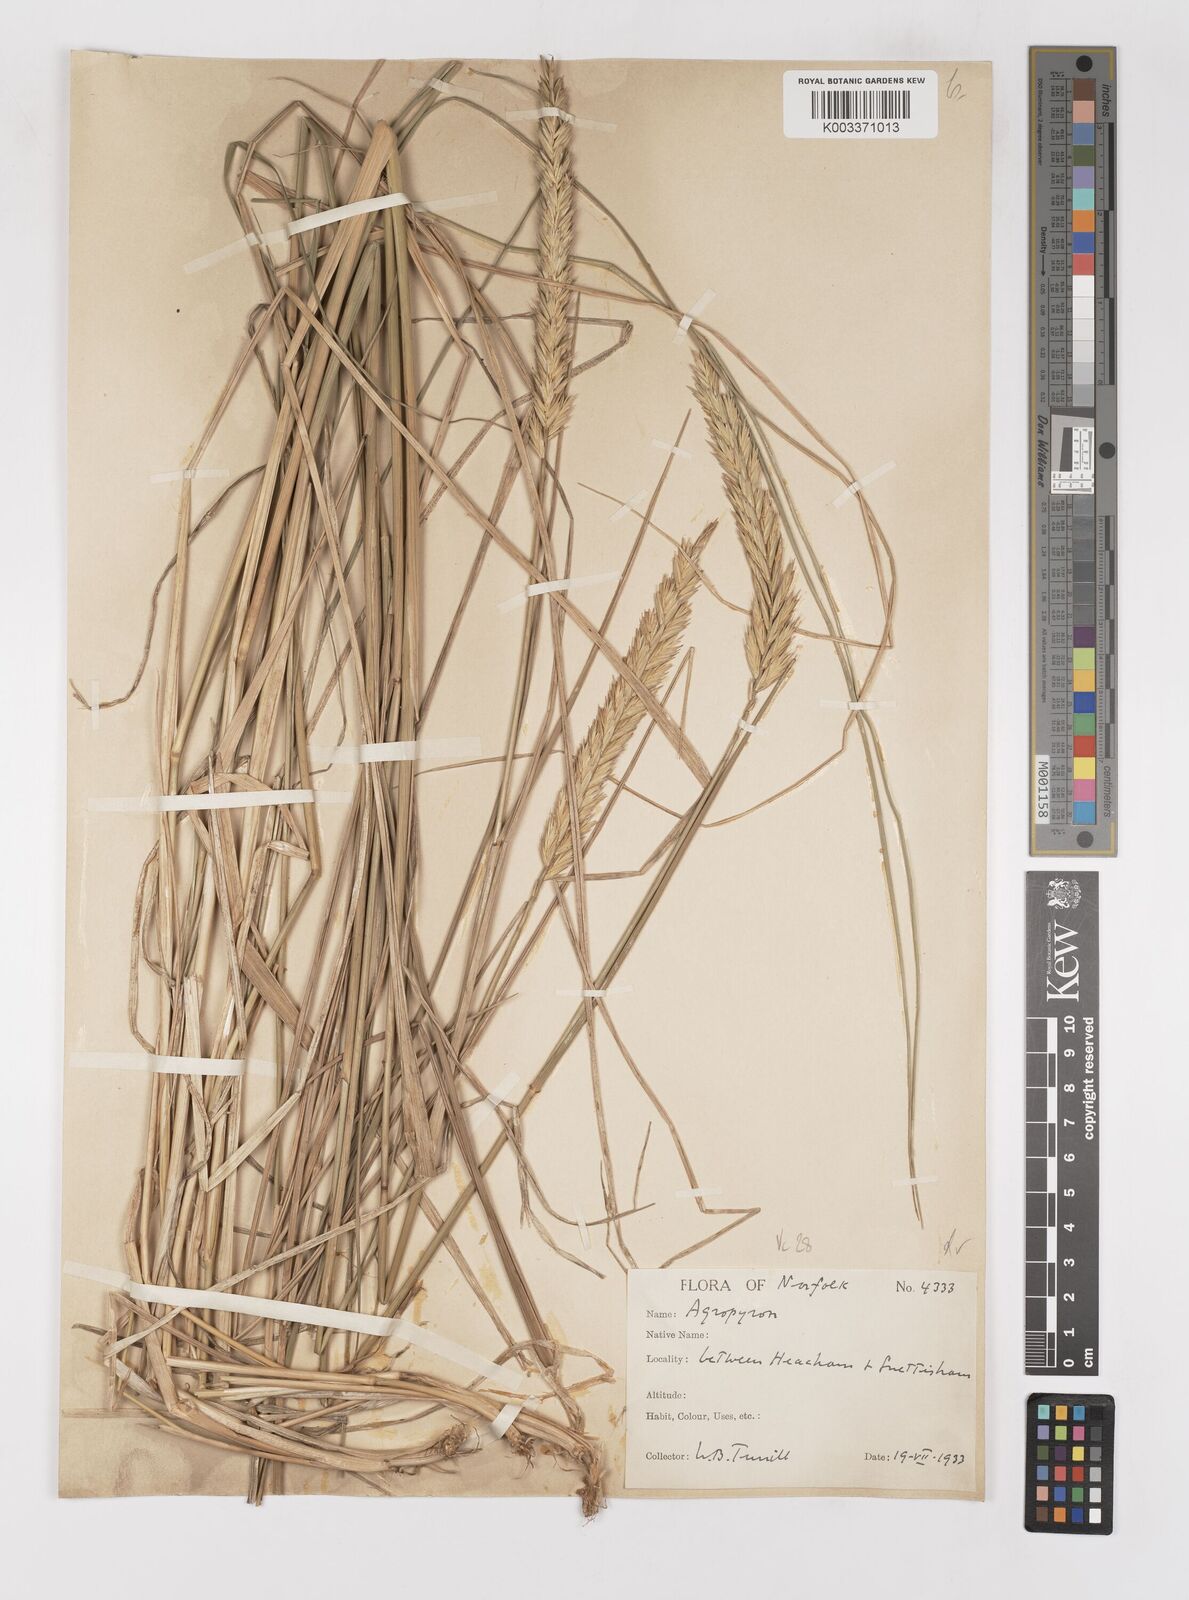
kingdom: Plantae
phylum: Tracheophyta
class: Liliopsida
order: Poales
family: Poaceae
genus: Elymus
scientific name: Elymus repens
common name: Quackgrass
